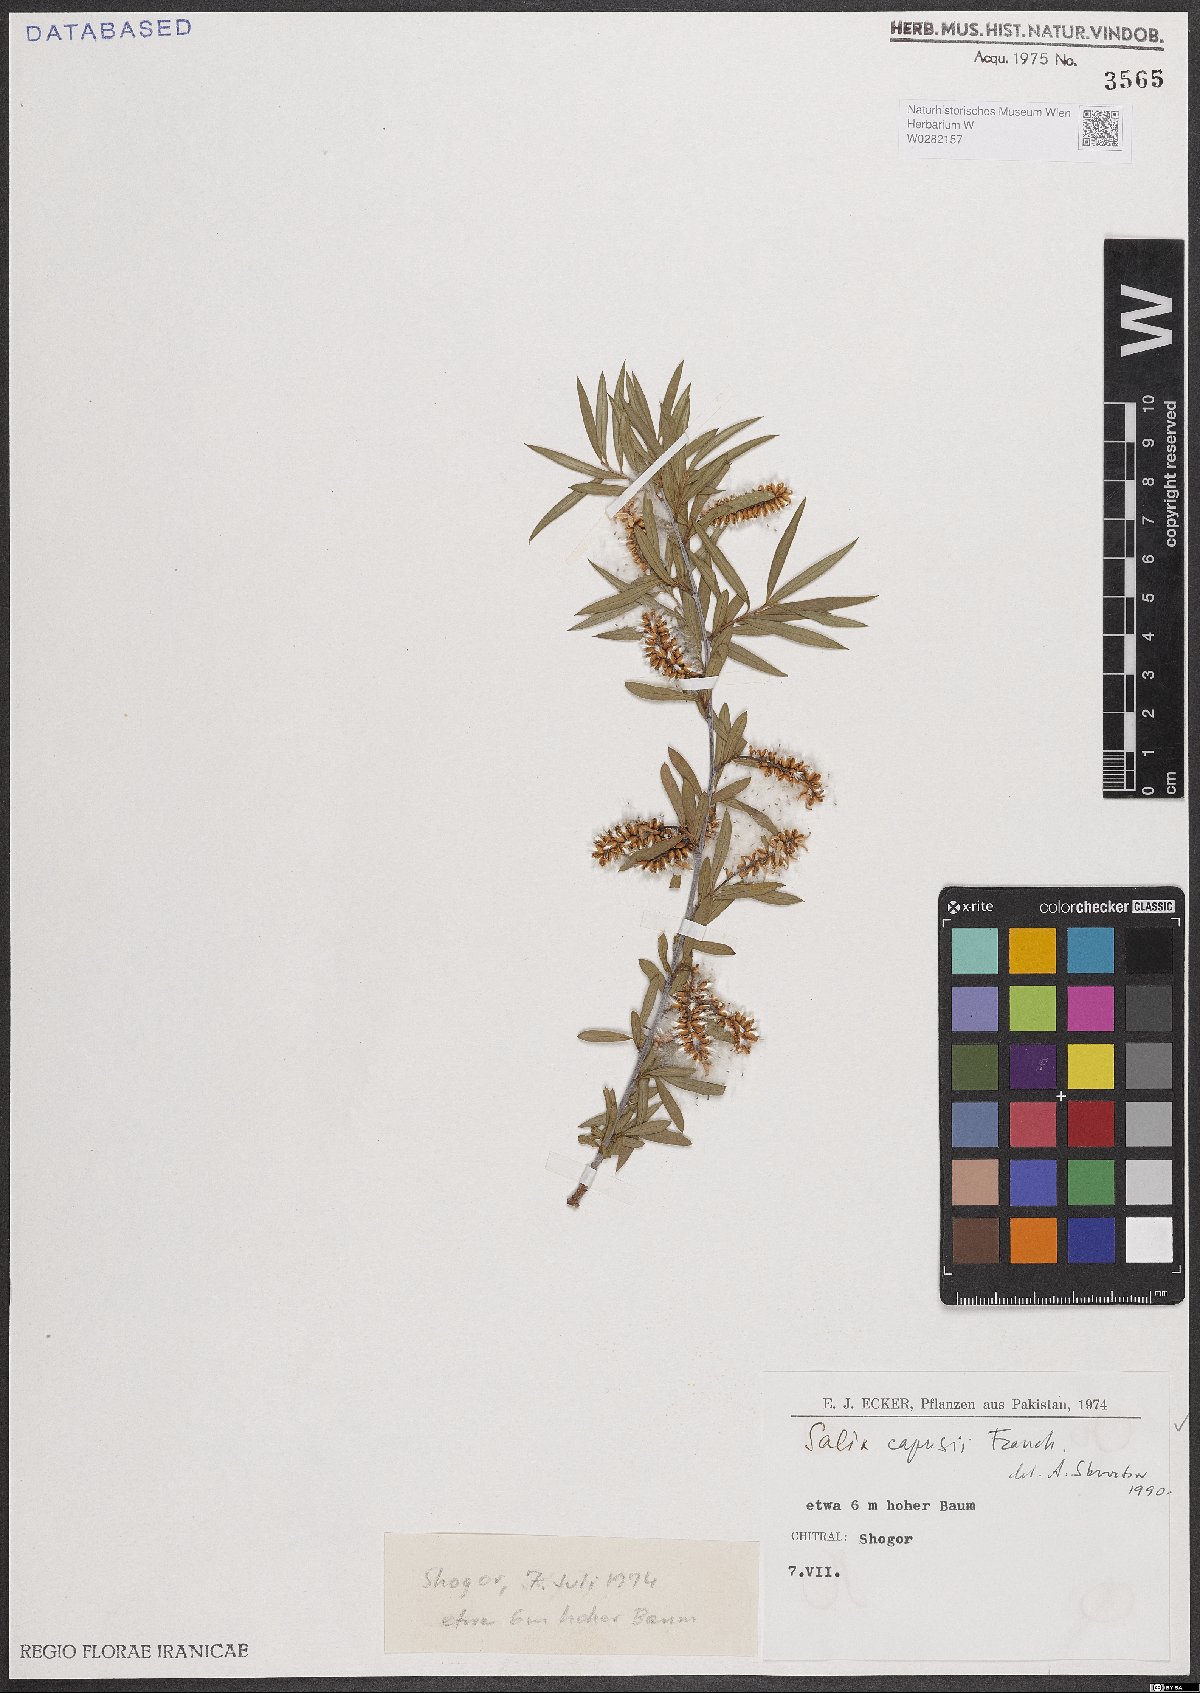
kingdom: Plantae
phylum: Tracheophyta
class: Magnoliopsida
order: Malpighiales
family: Salicaceae
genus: Salix
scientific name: Salix capusii
